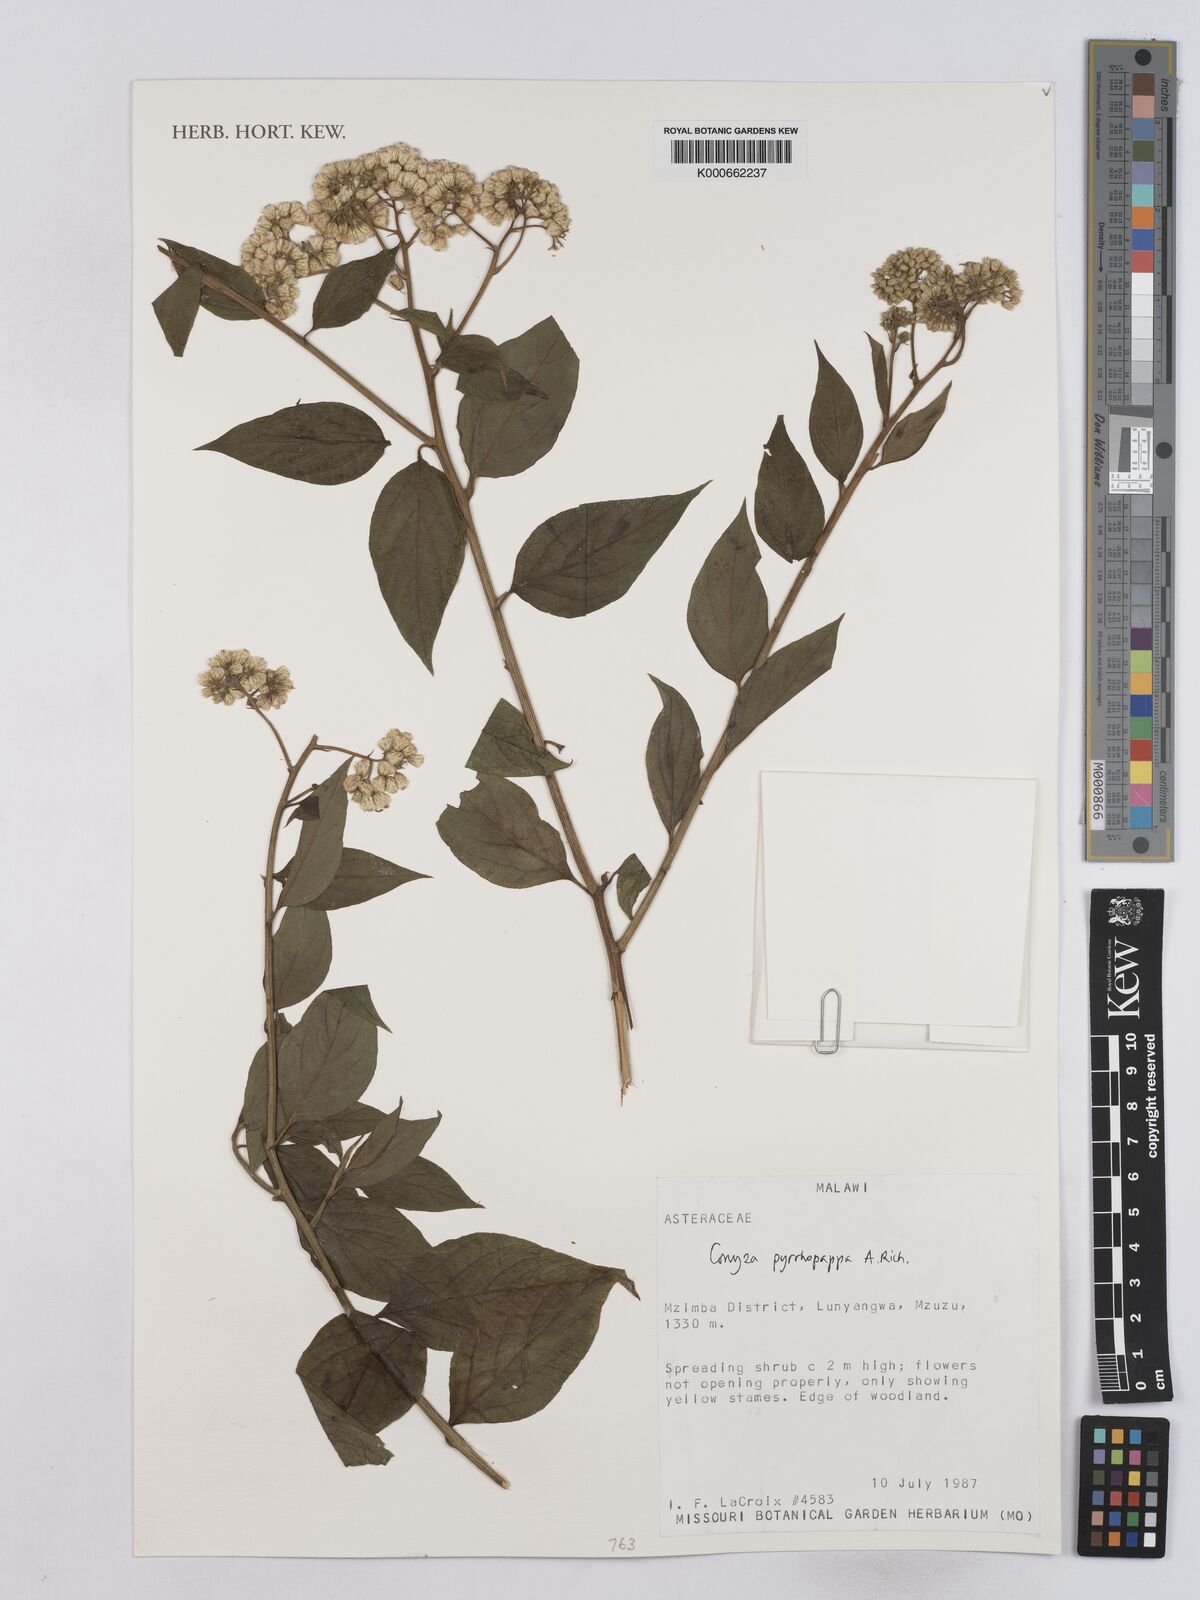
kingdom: Plantae
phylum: Tracheophyta
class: Magnoliopsida
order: Asterales
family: Asteraceae
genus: Microglossa
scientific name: Microglossa pyrrhopappa
